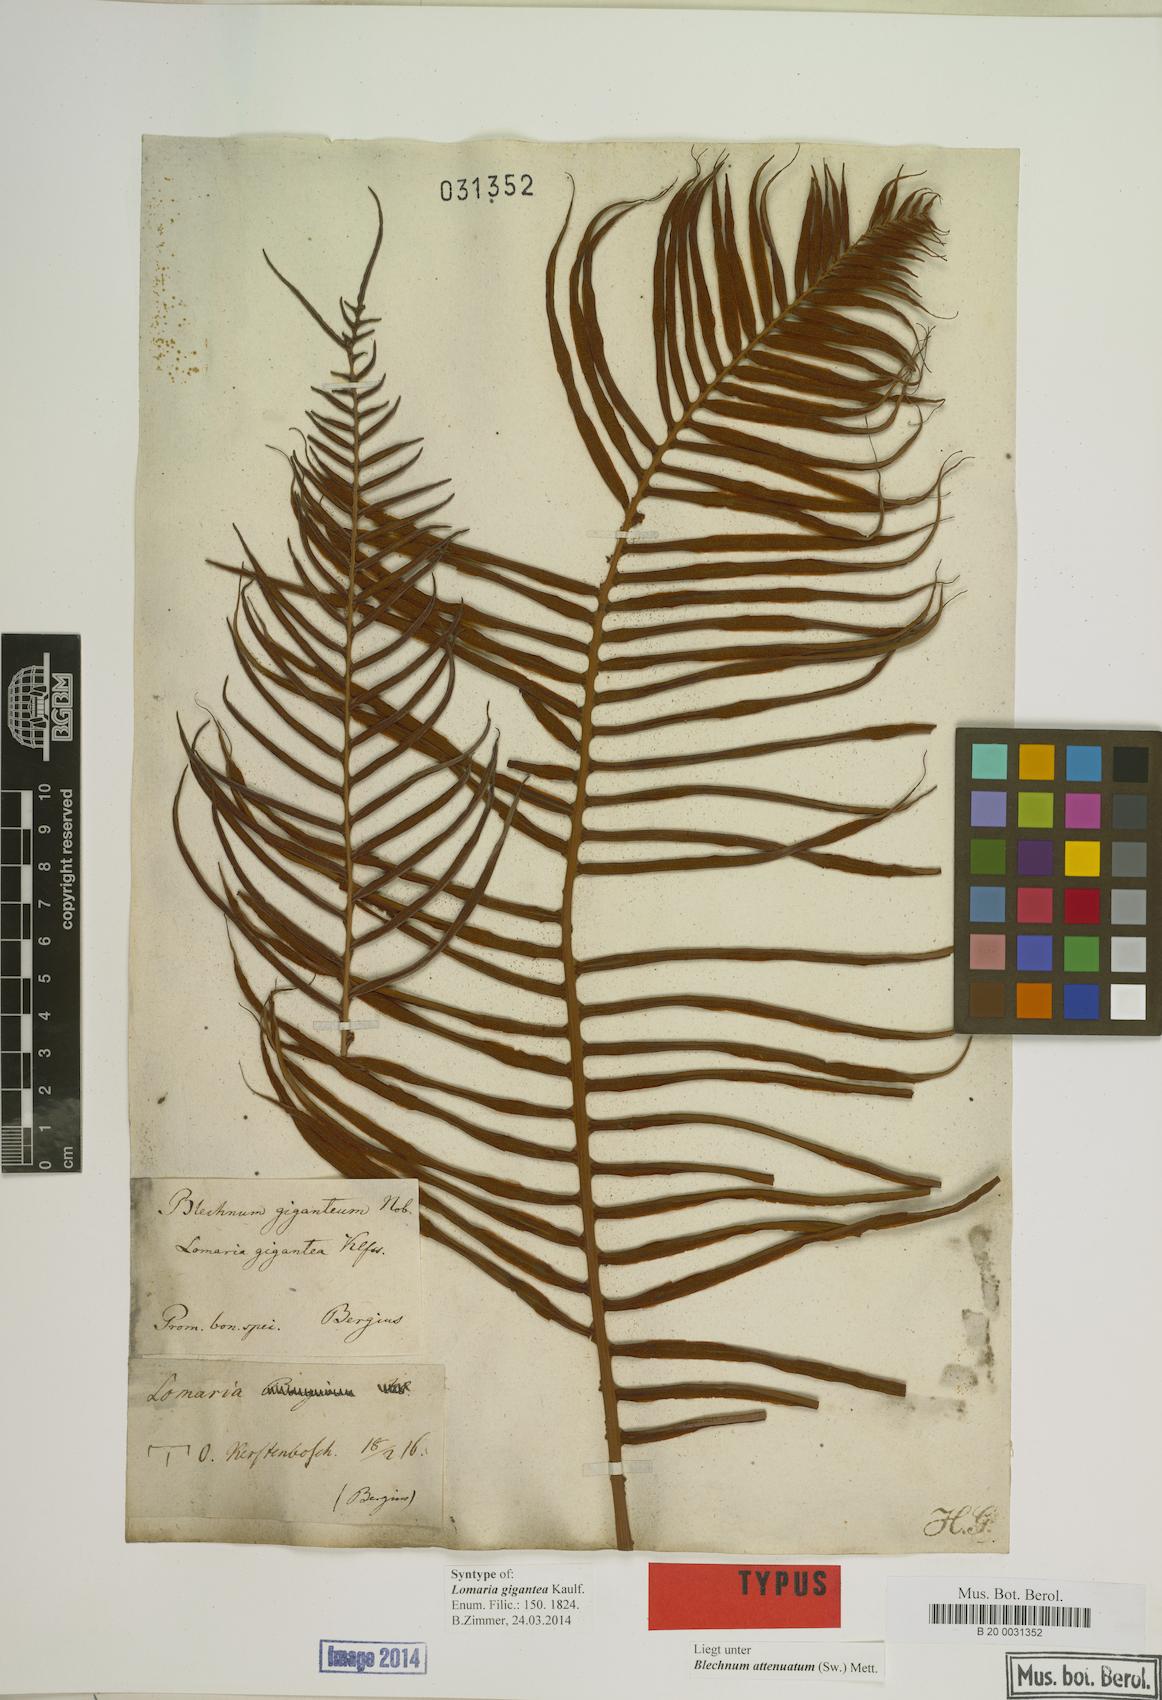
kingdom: Plantae
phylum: Tracheophyta
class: Polypodiopsida
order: Polypodiales
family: Blechnaceae
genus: Lomaridium
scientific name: Lomaridium attenuatum
